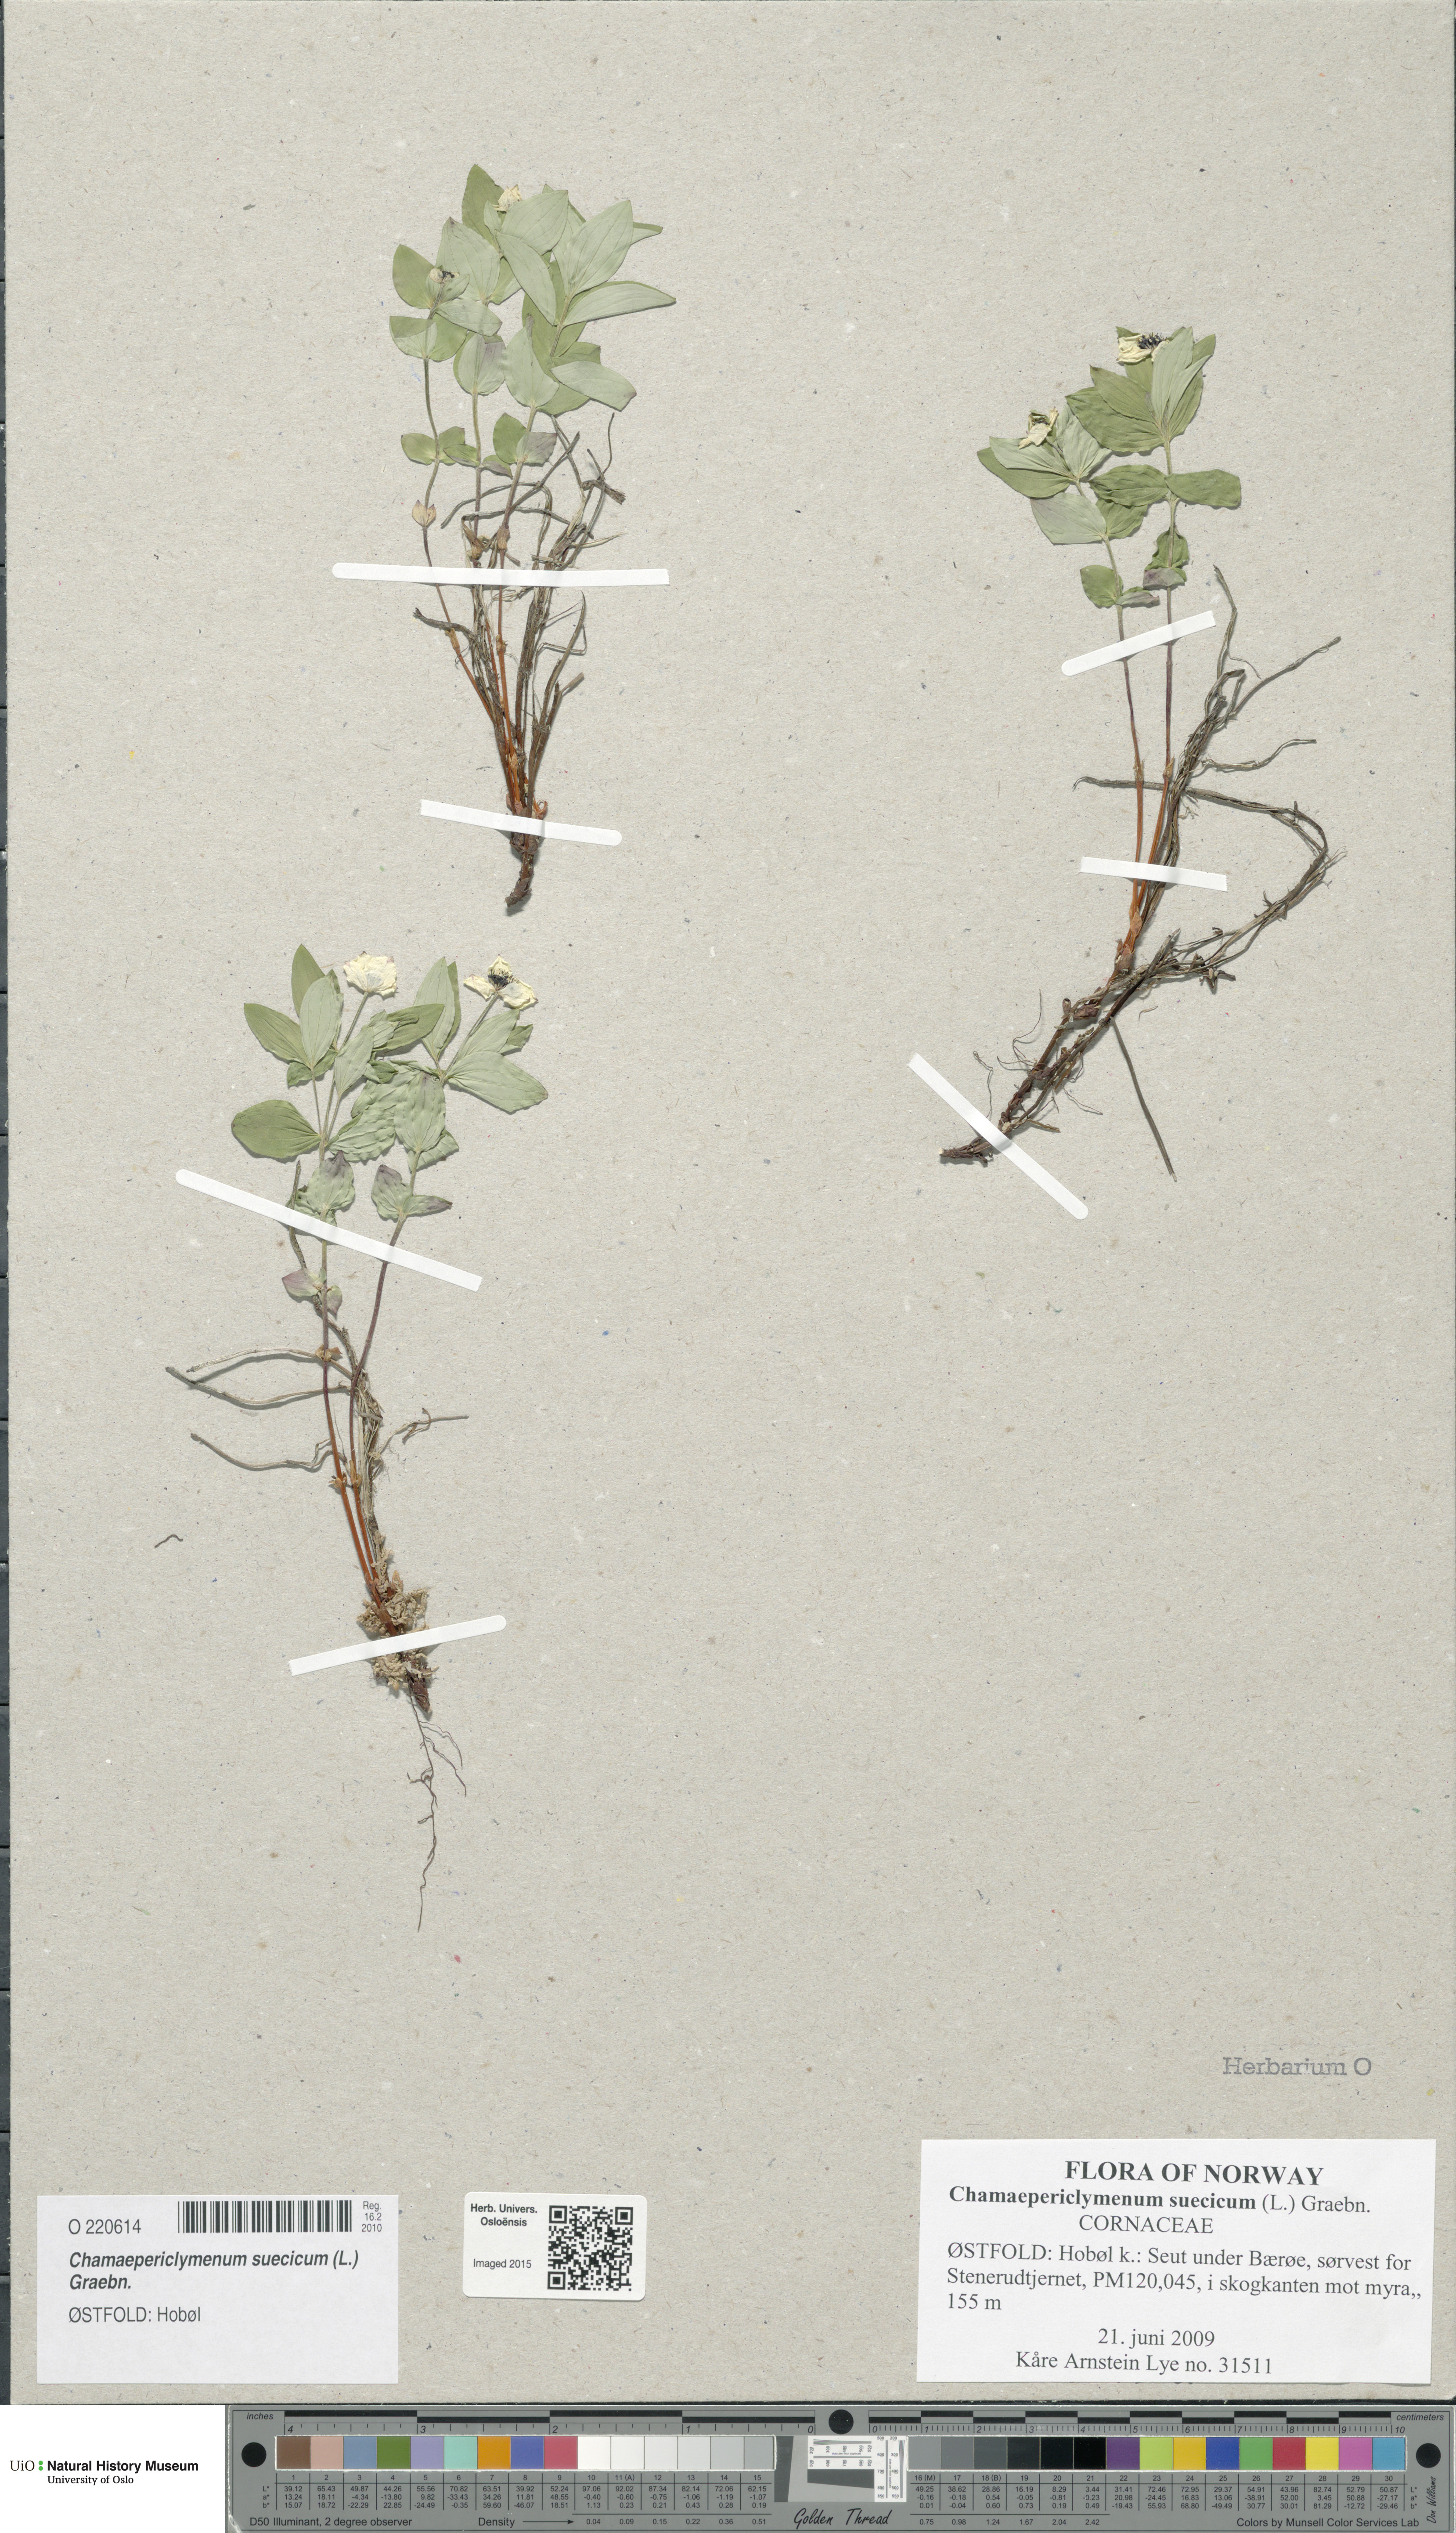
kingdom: Plantae
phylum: Tracheophyta
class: Magnoliopsida
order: Cornales
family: Cornaceae
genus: Cornus
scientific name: Cornus suecica
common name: Dwarf cornel
